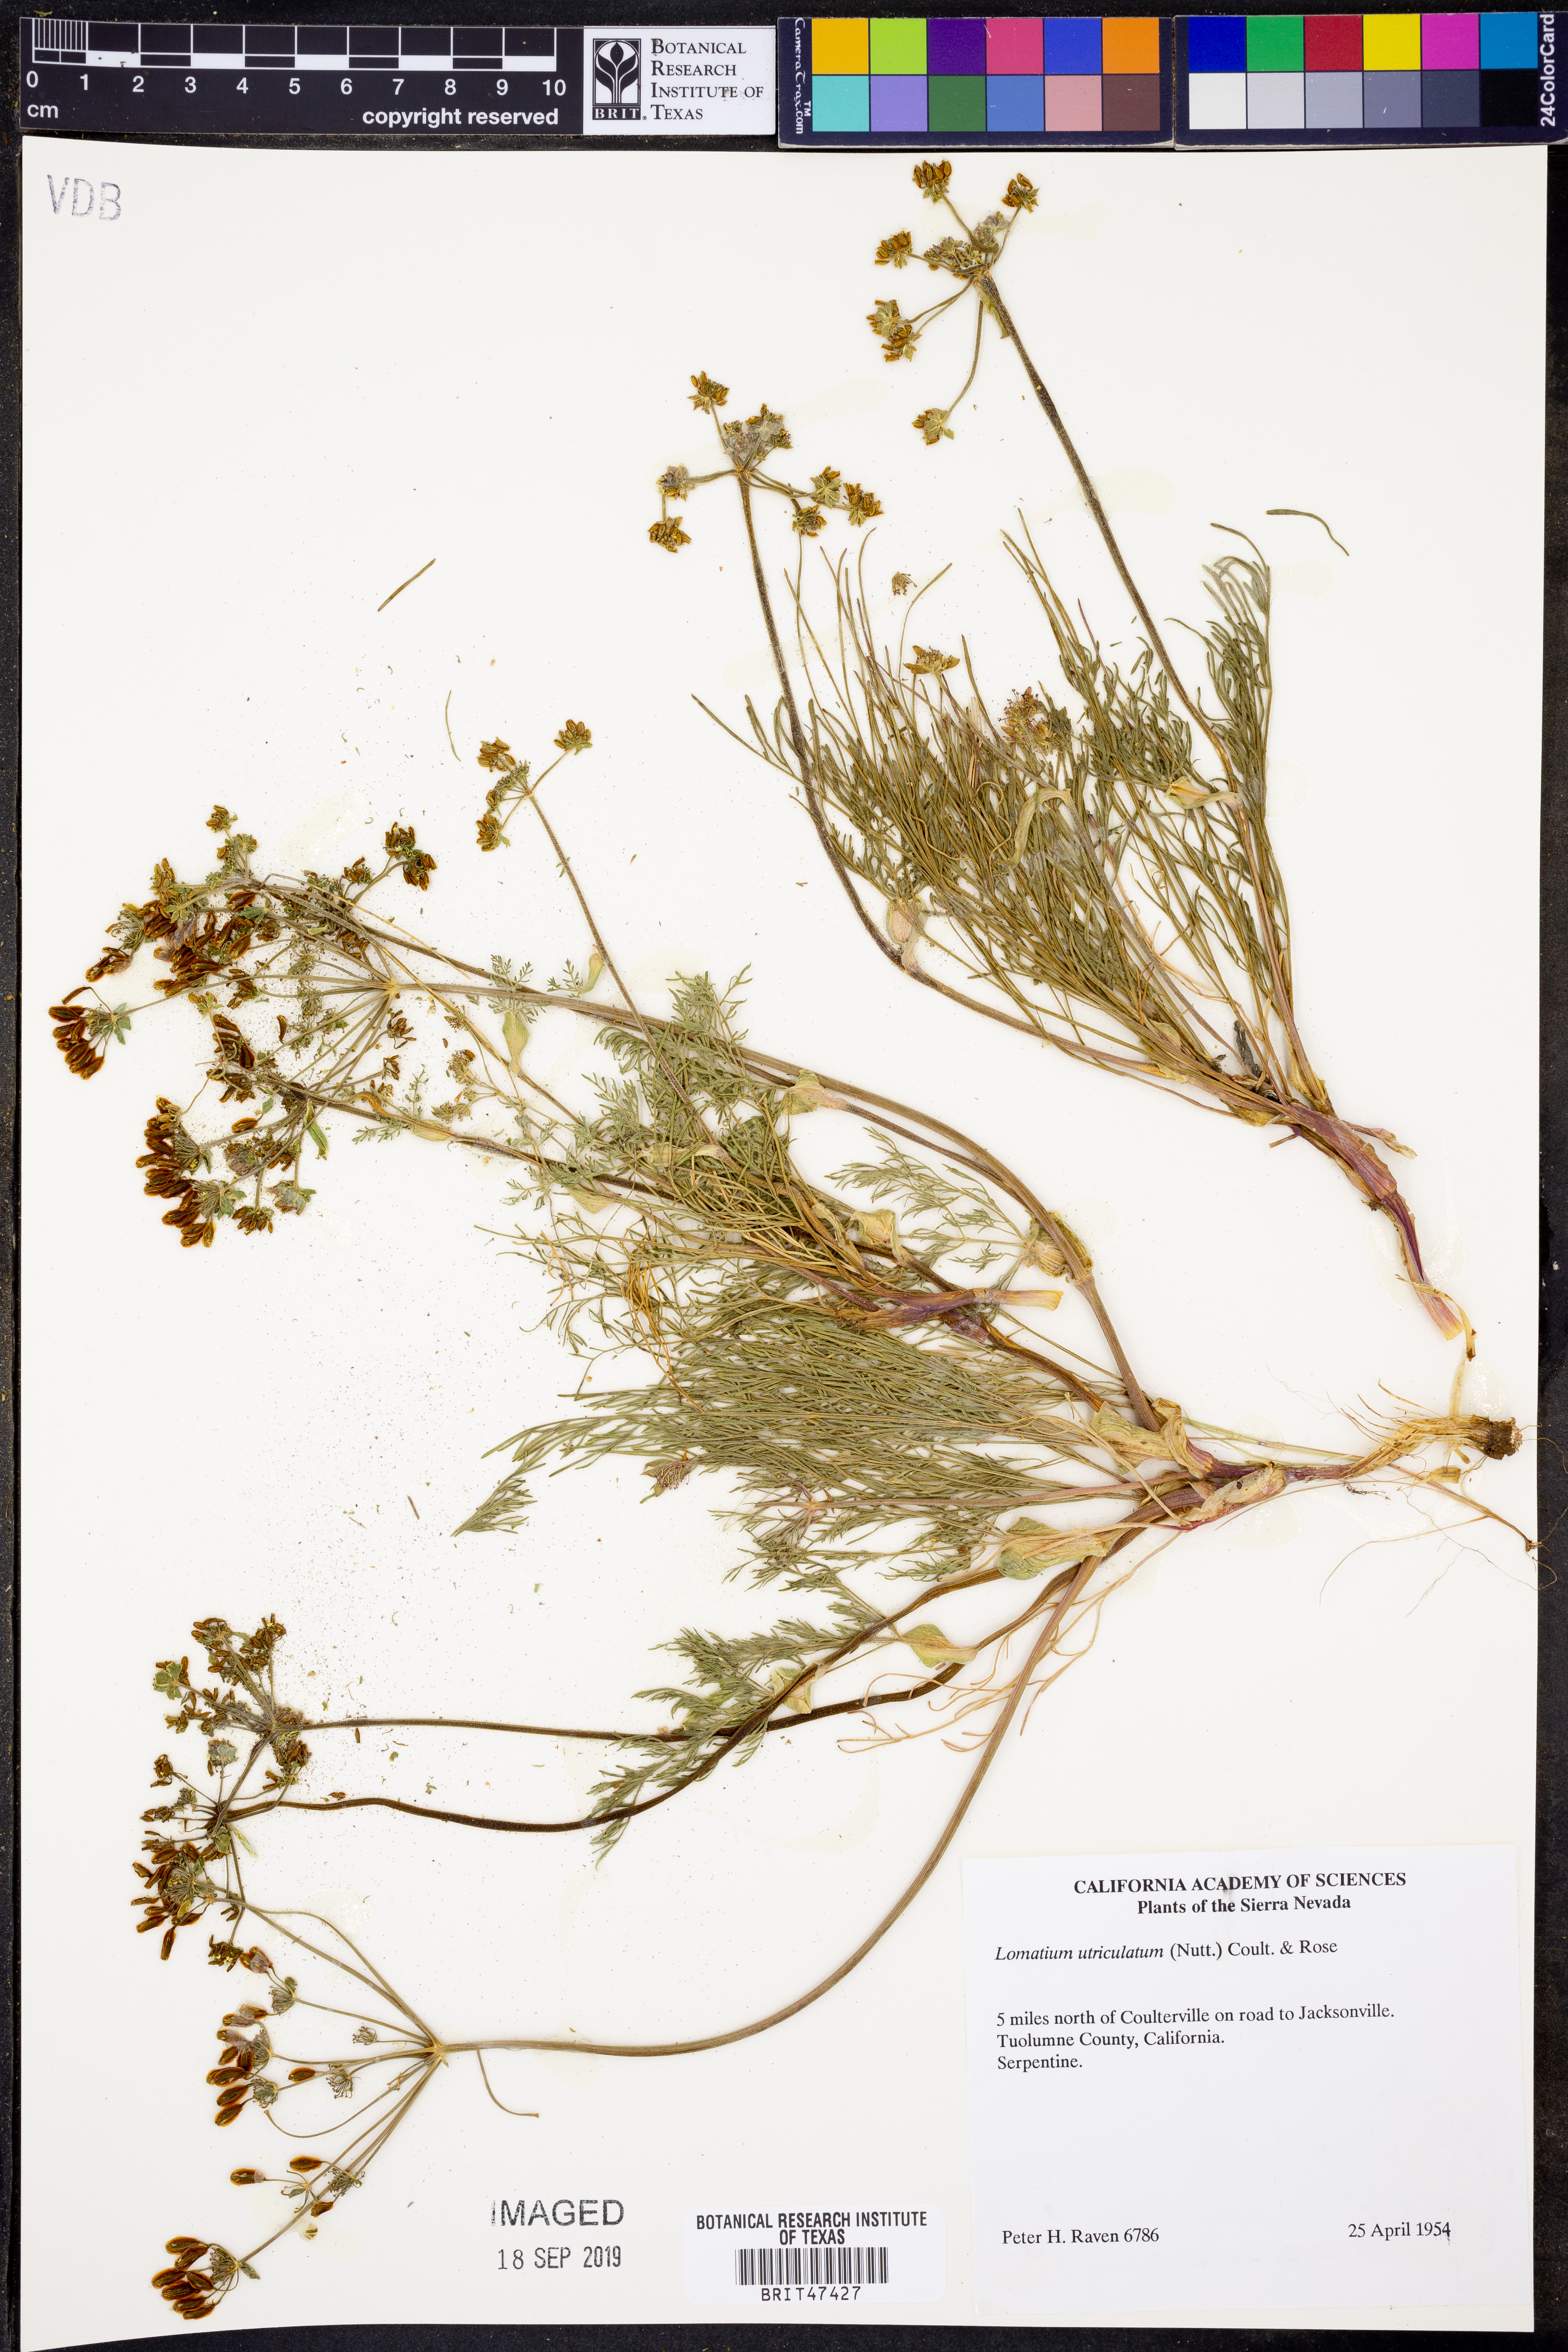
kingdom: Plantae
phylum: Tracheophyta
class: Magnoliopsida
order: Apiales
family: Apiaceae
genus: Lomatium
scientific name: Lomatium utriculatum
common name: Fine-leaf desert-parsley
